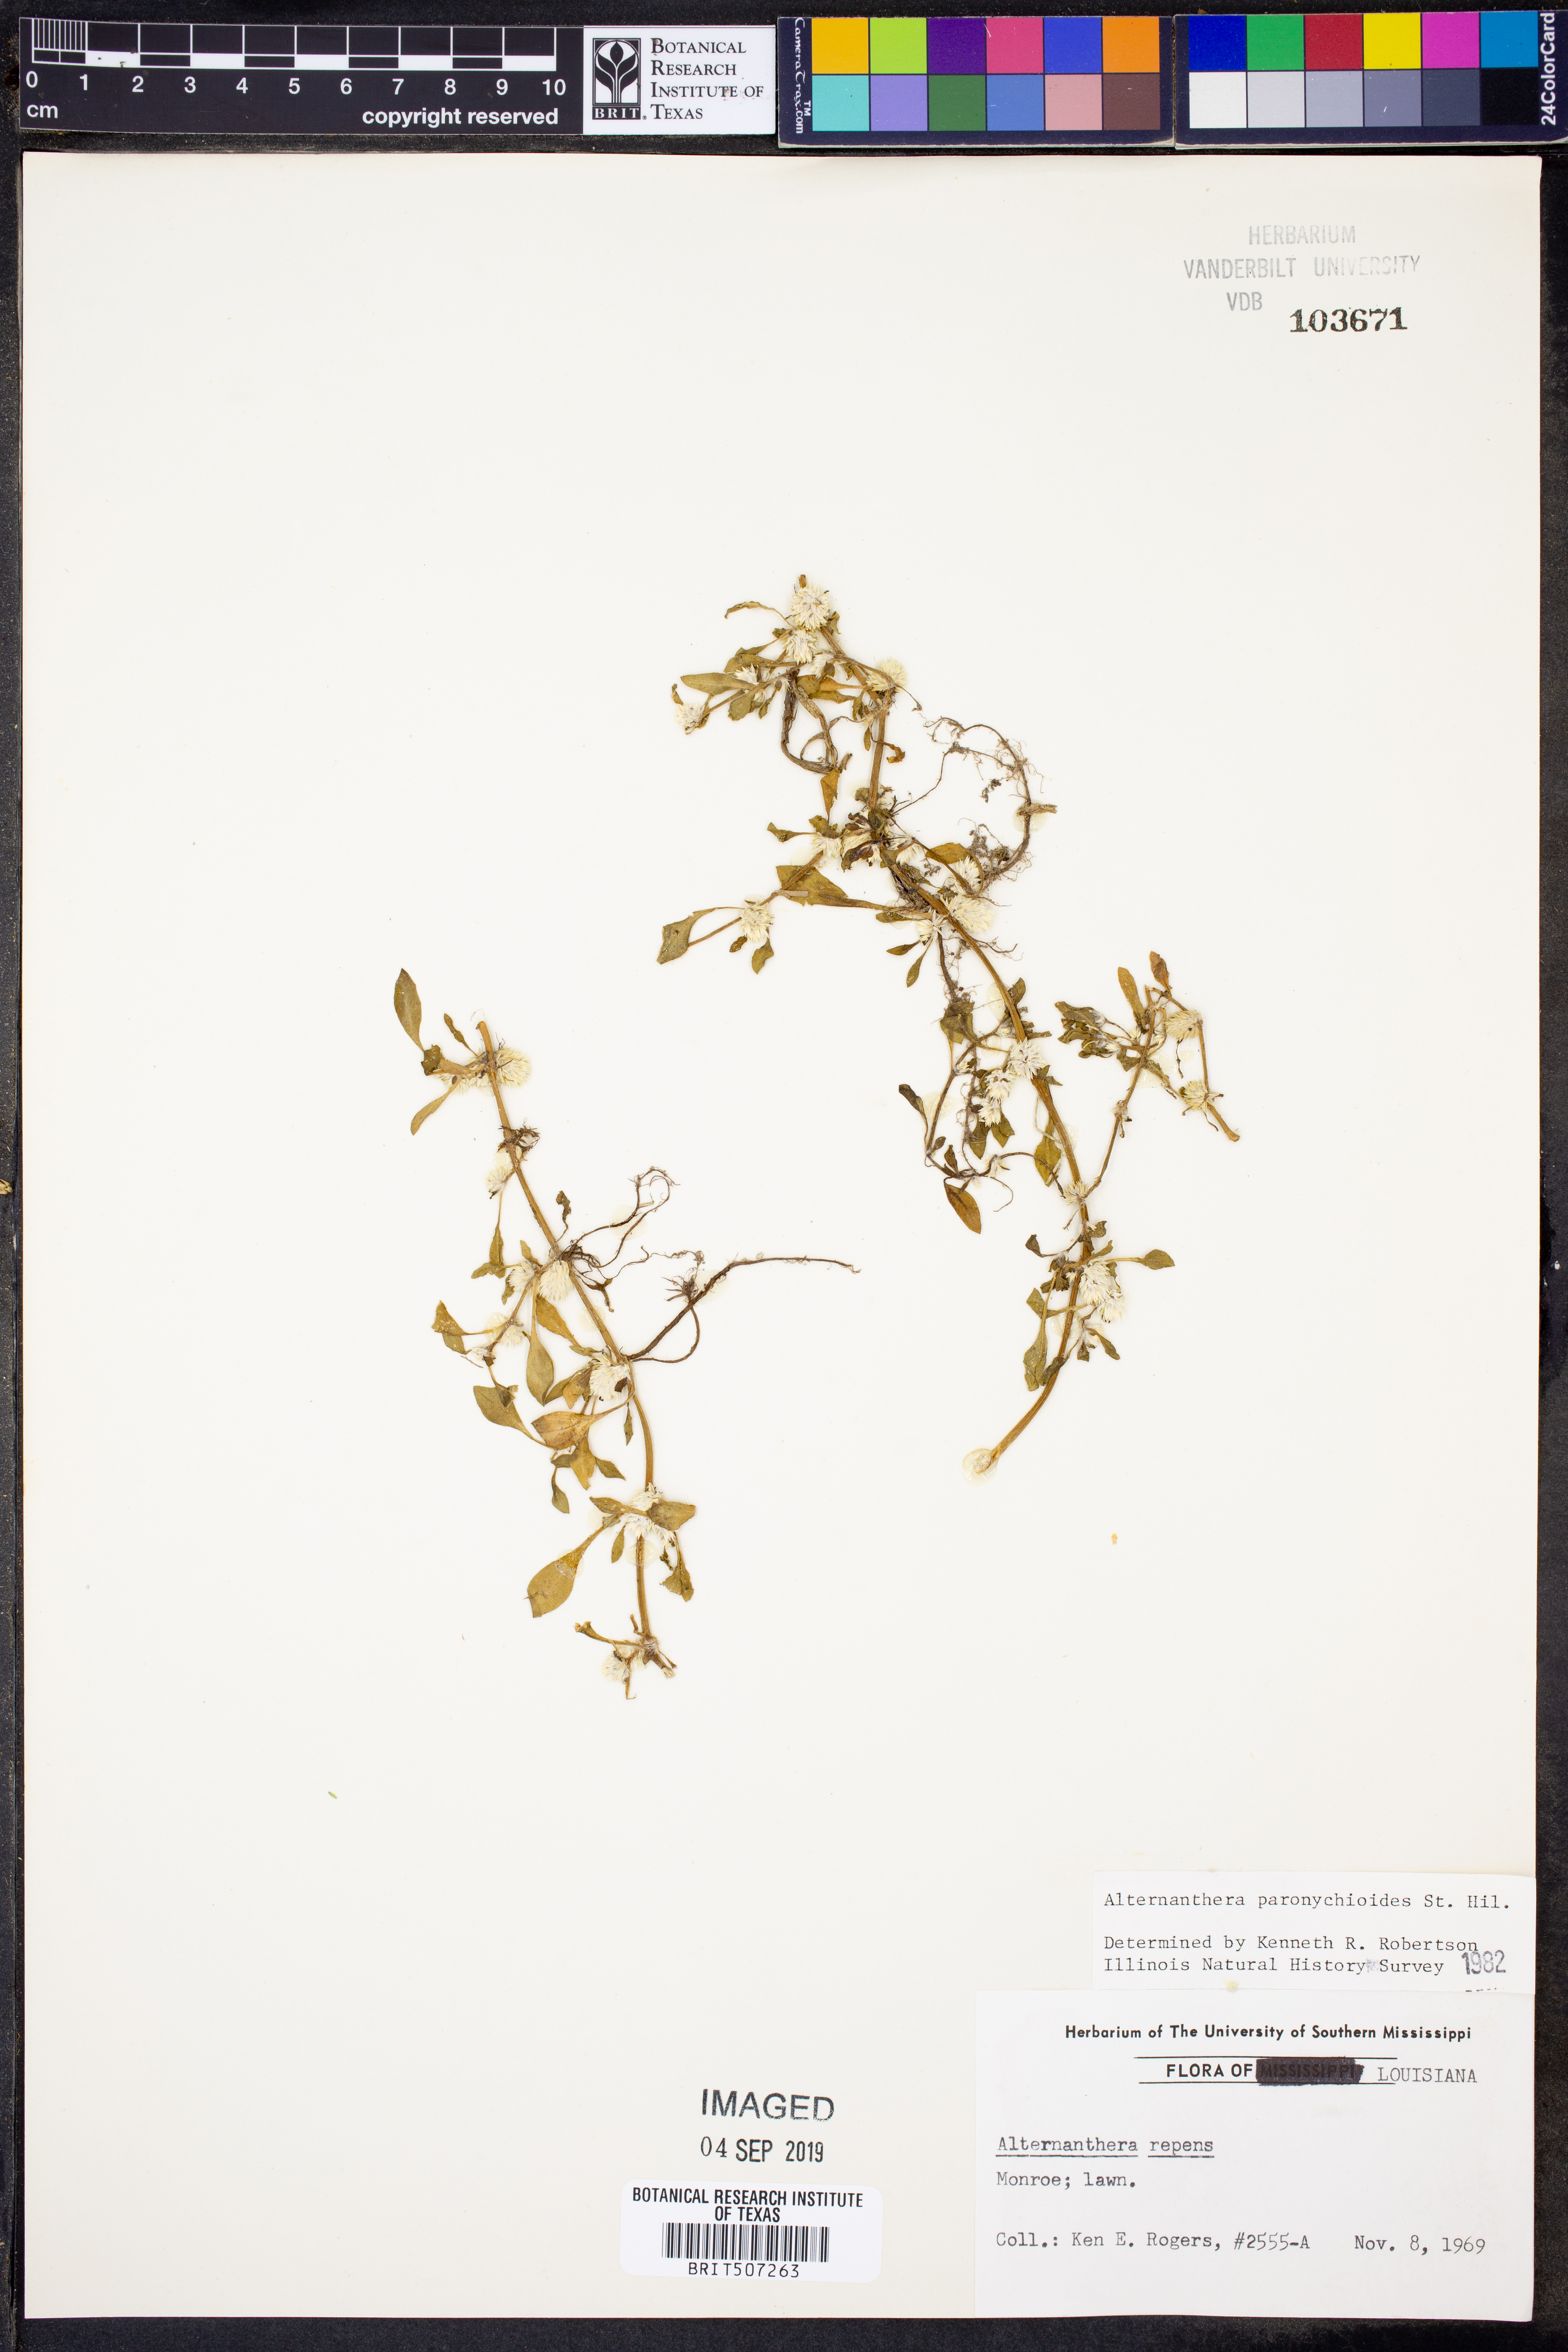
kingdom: Plantae
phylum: Tracheophyta
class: Magnoliopsida
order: Caryophyllales
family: Amaranthaceae
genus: Alternanthera
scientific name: Alternanthera paronychioides
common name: Smooth joyweed
